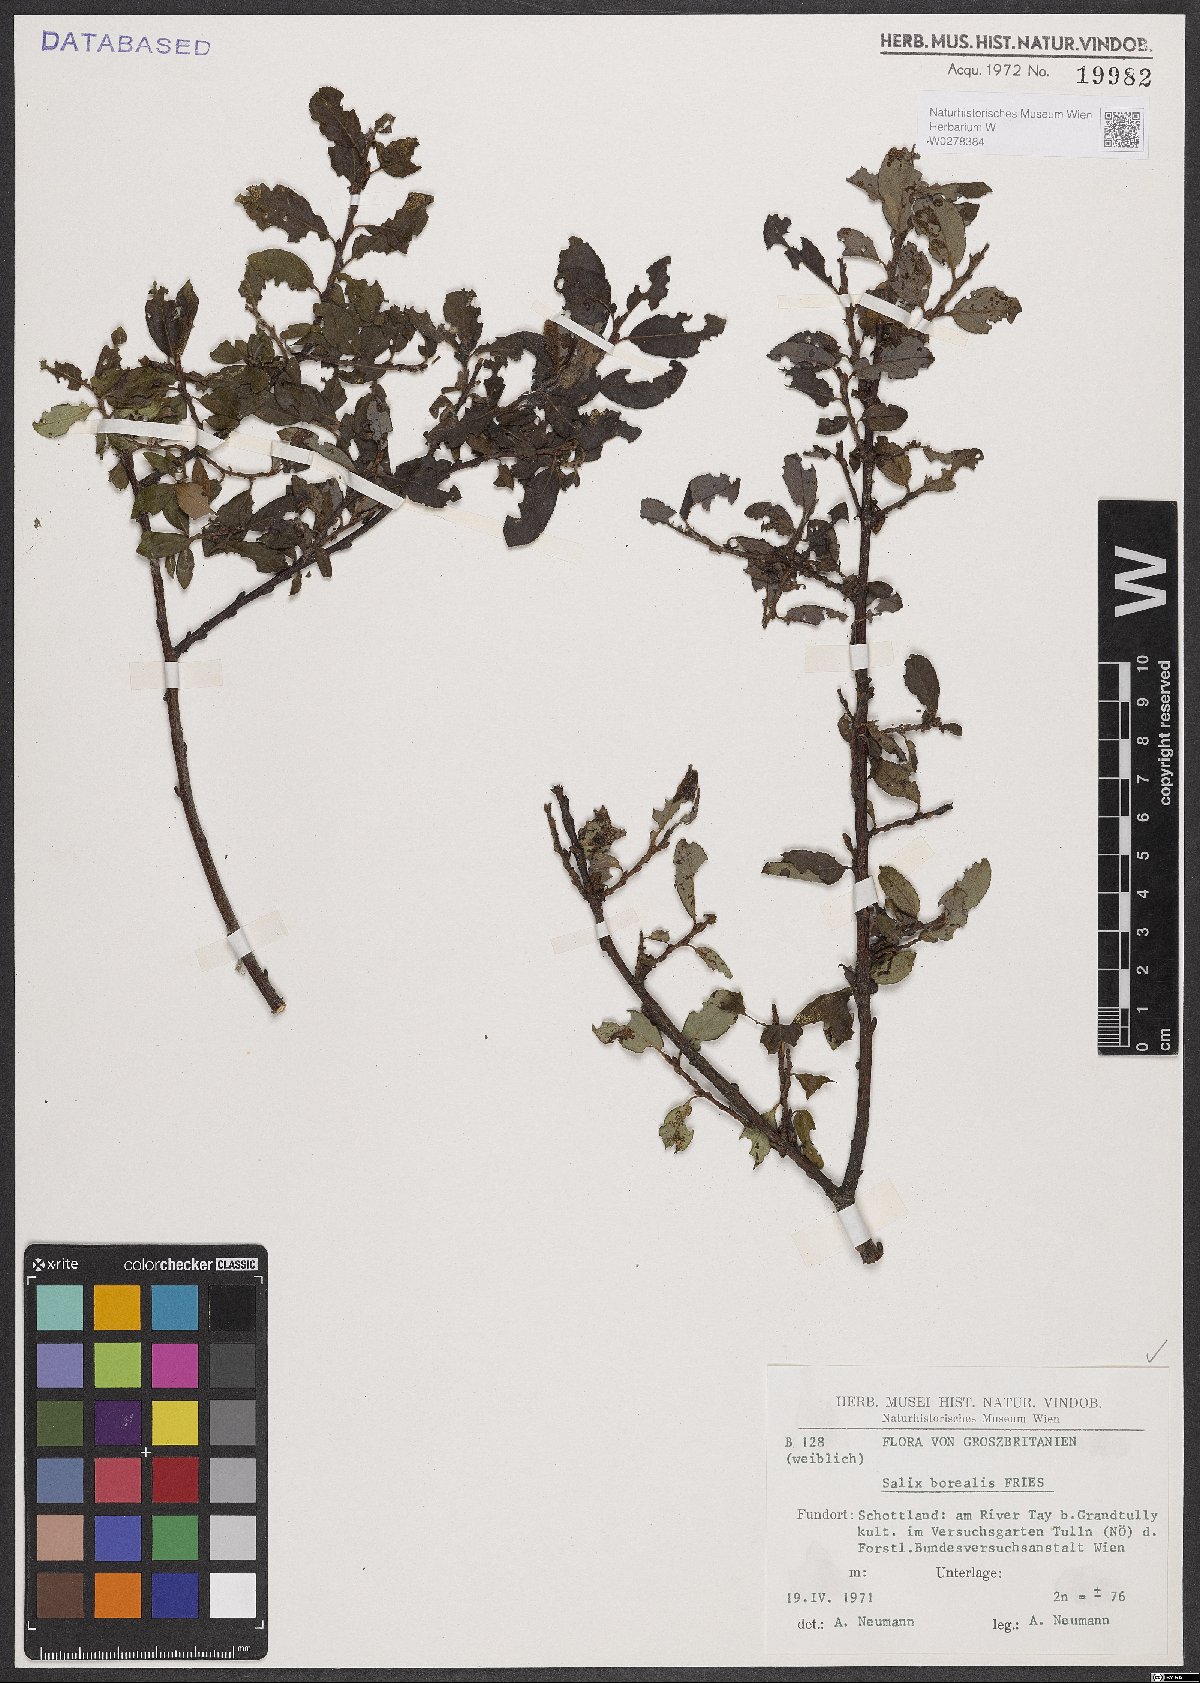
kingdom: Plantae
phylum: Tracheophyta
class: Magnoliopsida
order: Malpighiales
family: Salicaceae
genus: Salix
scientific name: Salix myrsinifolia
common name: Dark-leaved willow
